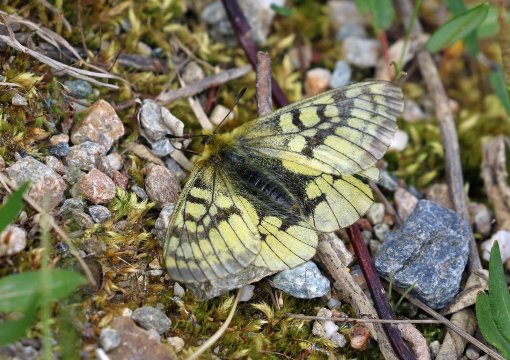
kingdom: Animalia
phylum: Arthropoda
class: Insecta
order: Lepidoptera
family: Papilionidae
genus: Parnassius
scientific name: Parnassius eversmanni
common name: Eversmann's Parnassian
